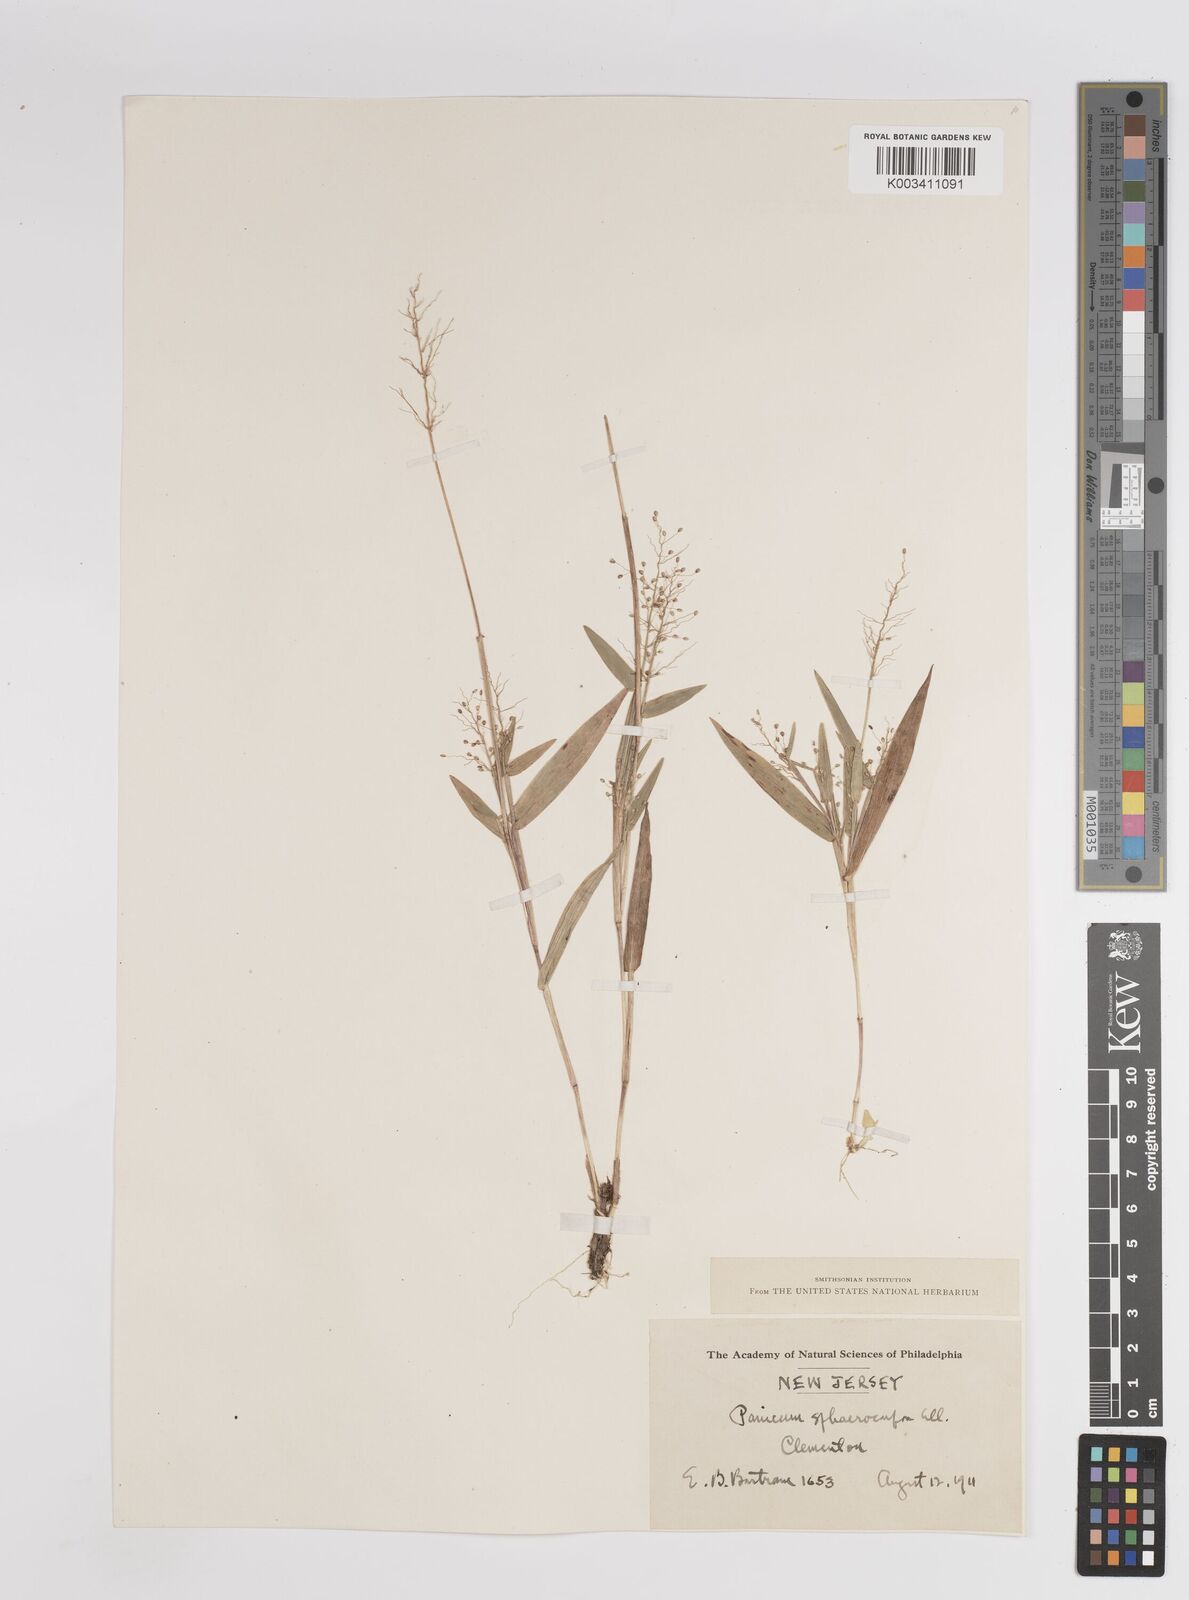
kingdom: Plantae
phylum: Tracheophyta
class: Liliopsida
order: Poales
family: Poaceae
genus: Dichanthelium
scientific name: Dichanthelium sphaerocarpon
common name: Round-fruited panicgrass
